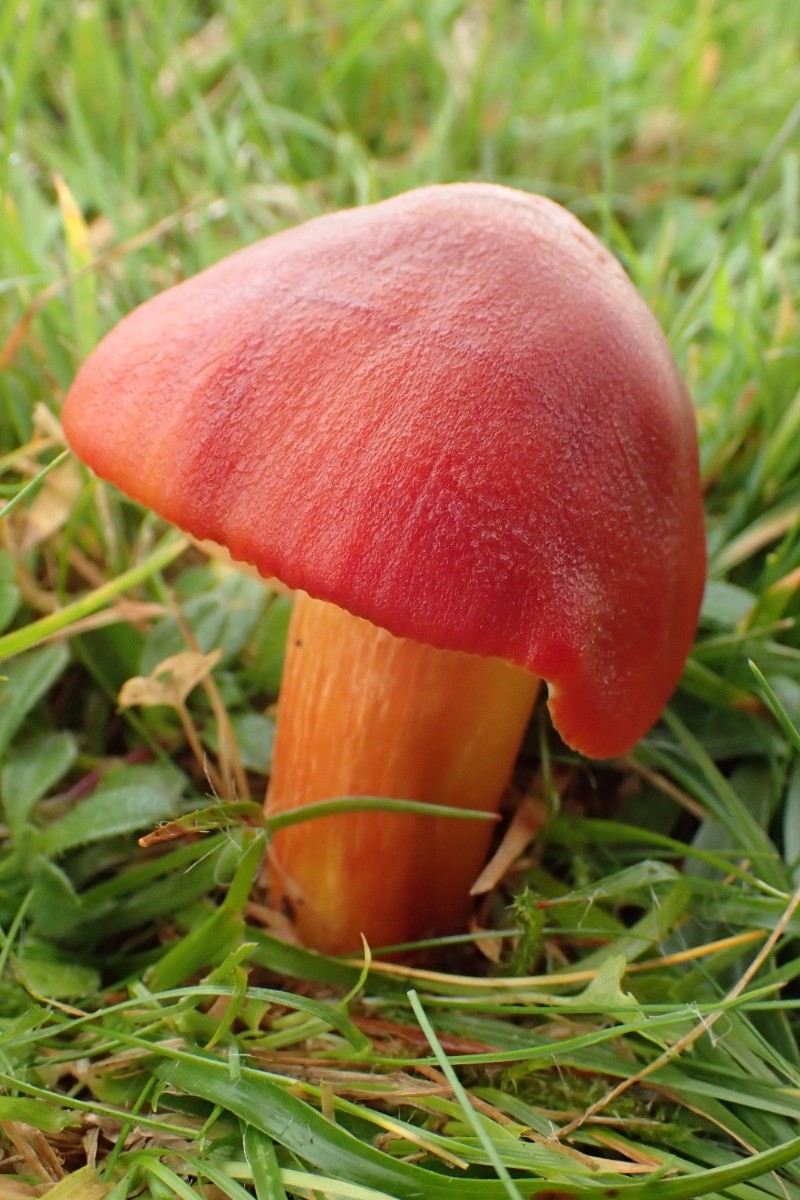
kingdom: Fungi
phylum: Basidiomycota
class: Agaricomycetes
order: Agaricales
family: Hygrophoraceae
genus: Hygrocybe
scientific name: Hygrocybe punicea
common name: skarlagen-vokshat
